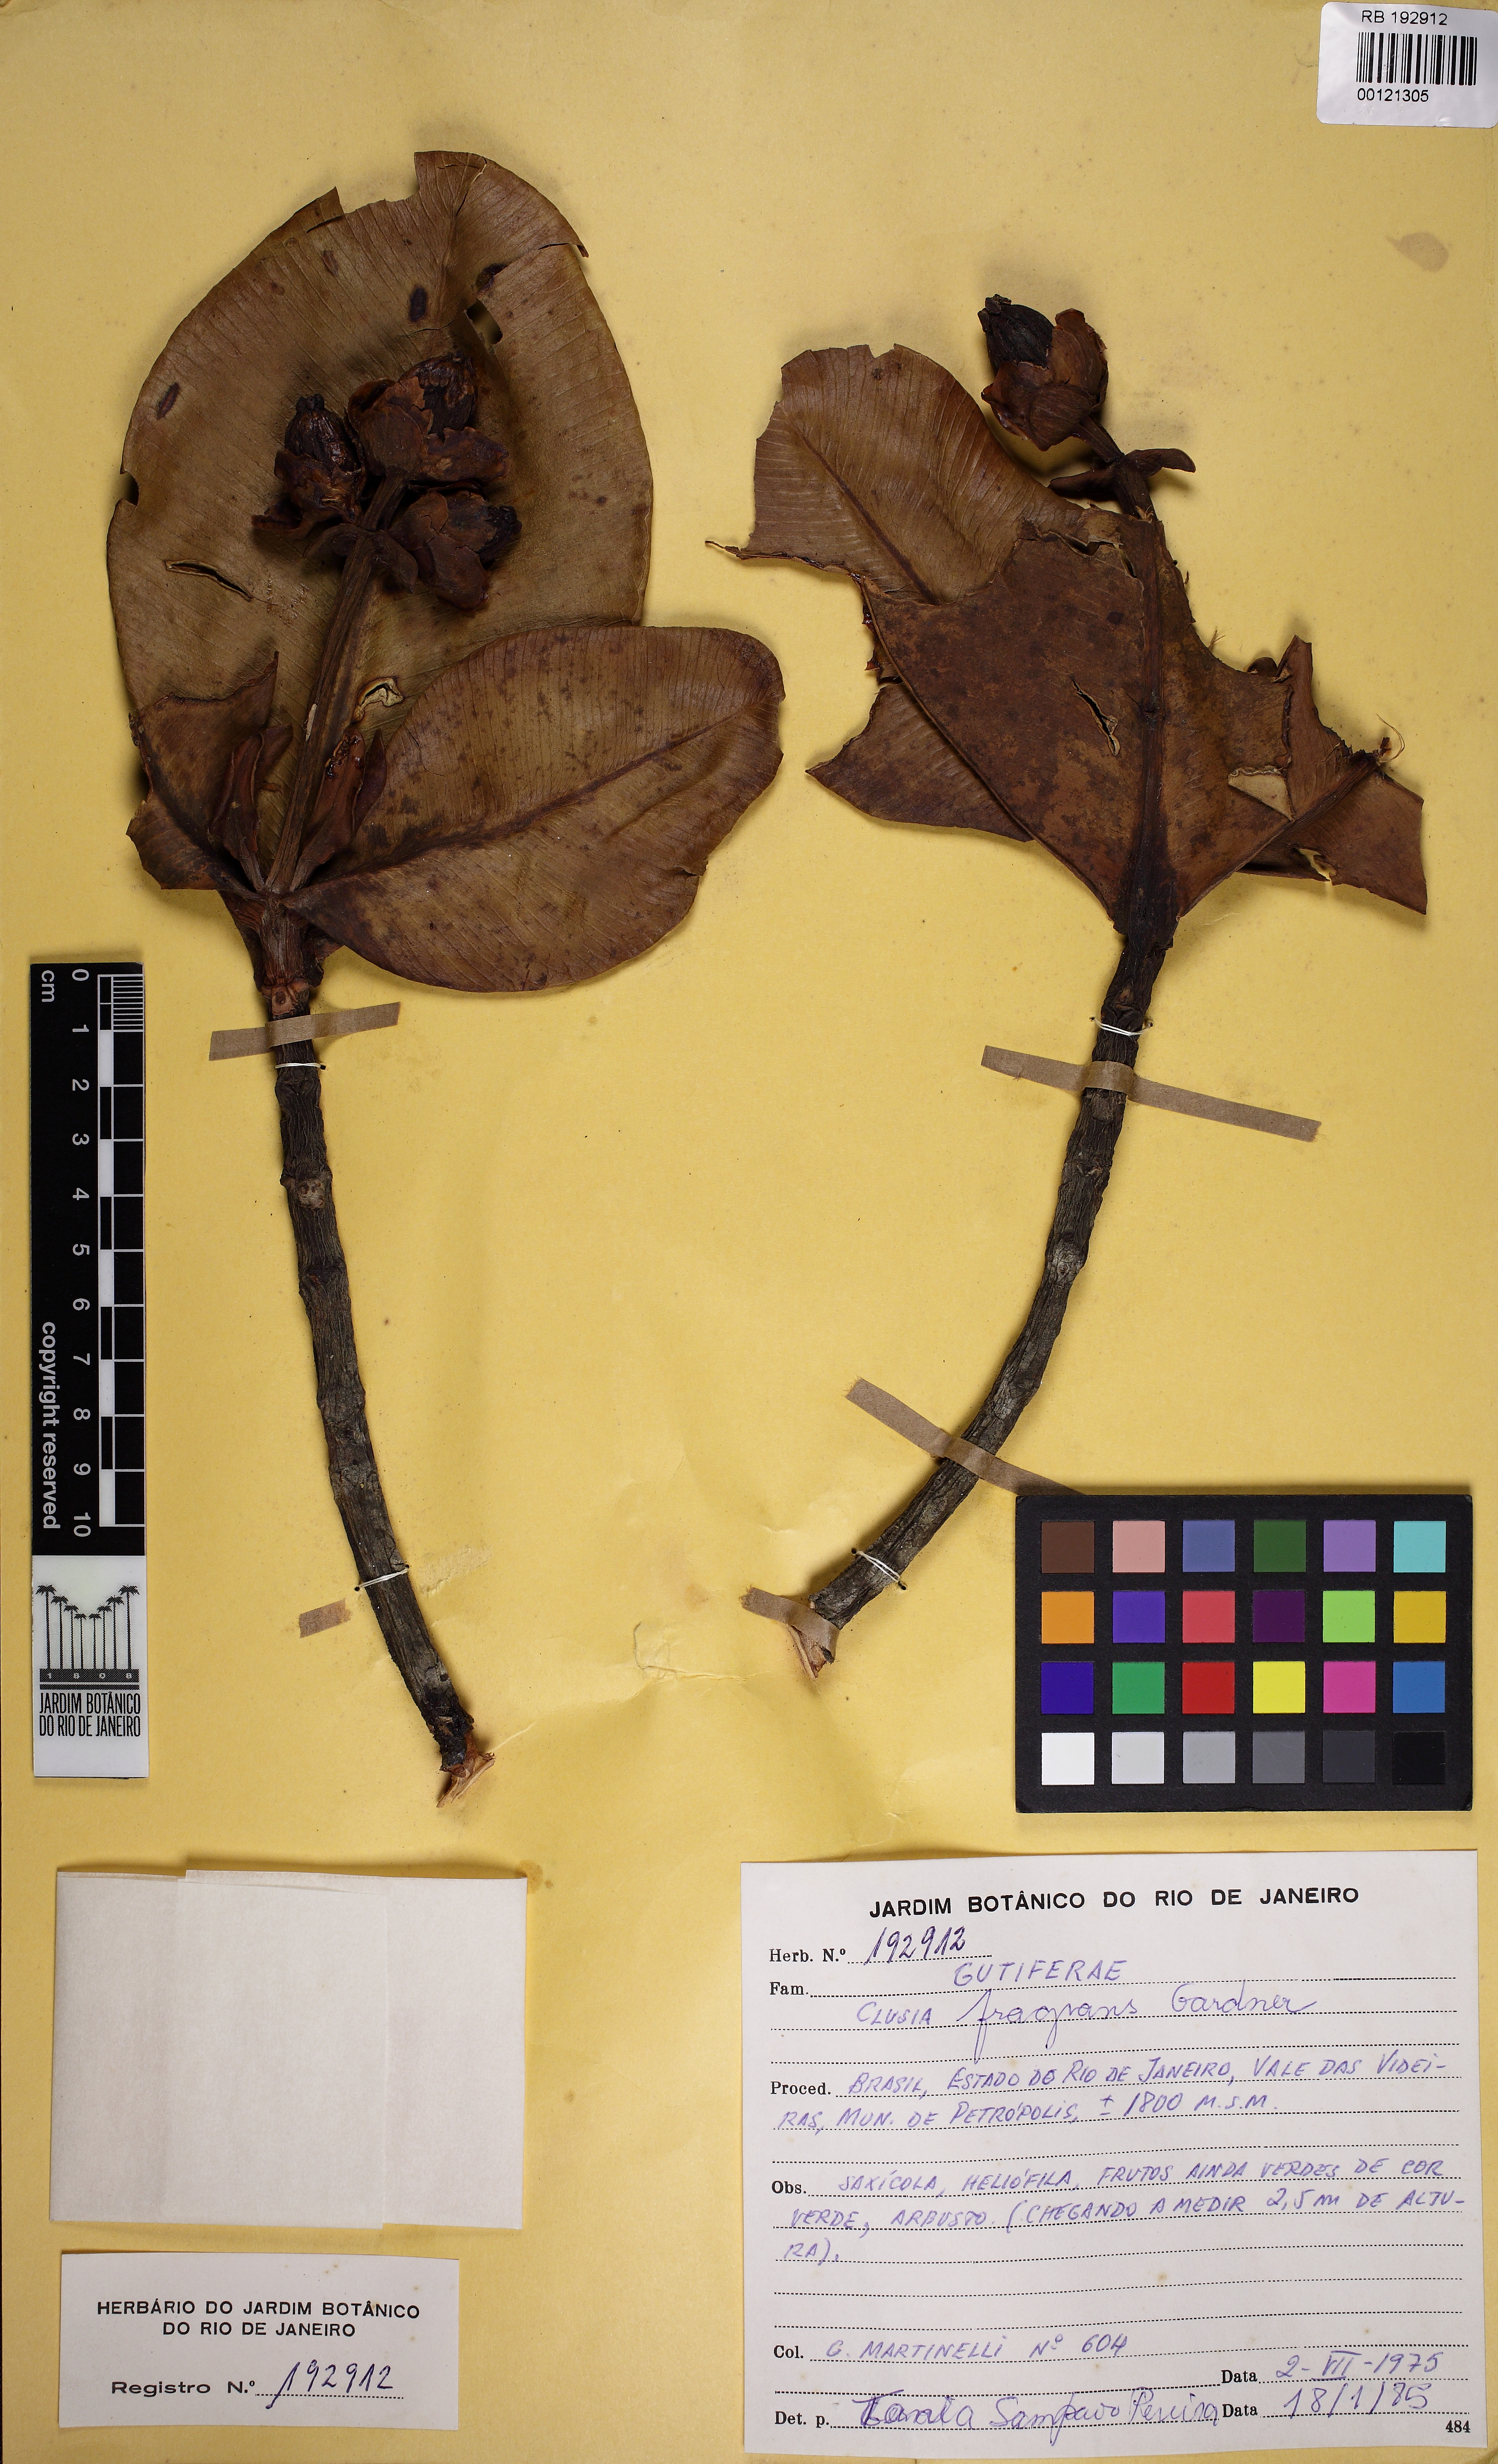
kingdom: Plantae
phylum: Tracheophyta
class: Magnoliopsida
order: Malpighiales
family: Clusiaceae
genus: Clusia
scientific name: Clusia fragrans
